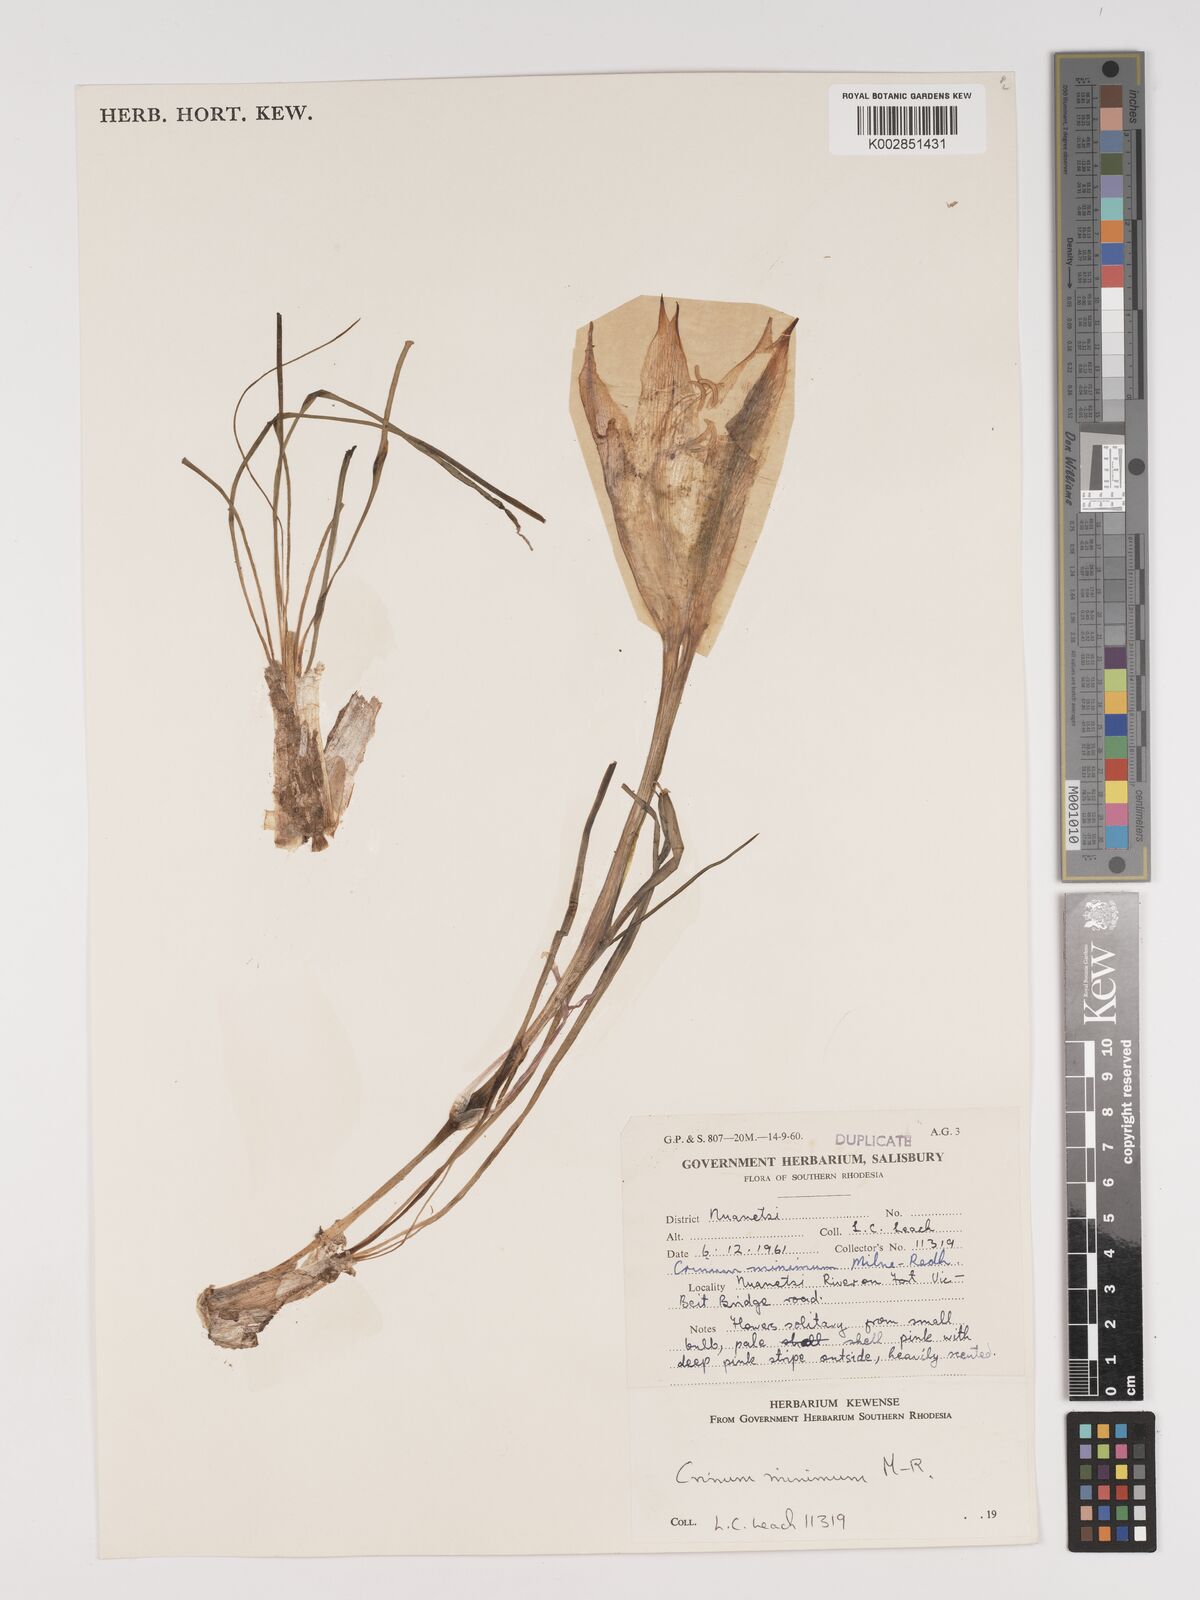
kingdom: Plantae
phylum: Tracheophyta
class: Liliopsida
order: Asparagales
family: Amaryllidaceae
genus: Crinum
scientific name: Crinum walteri
